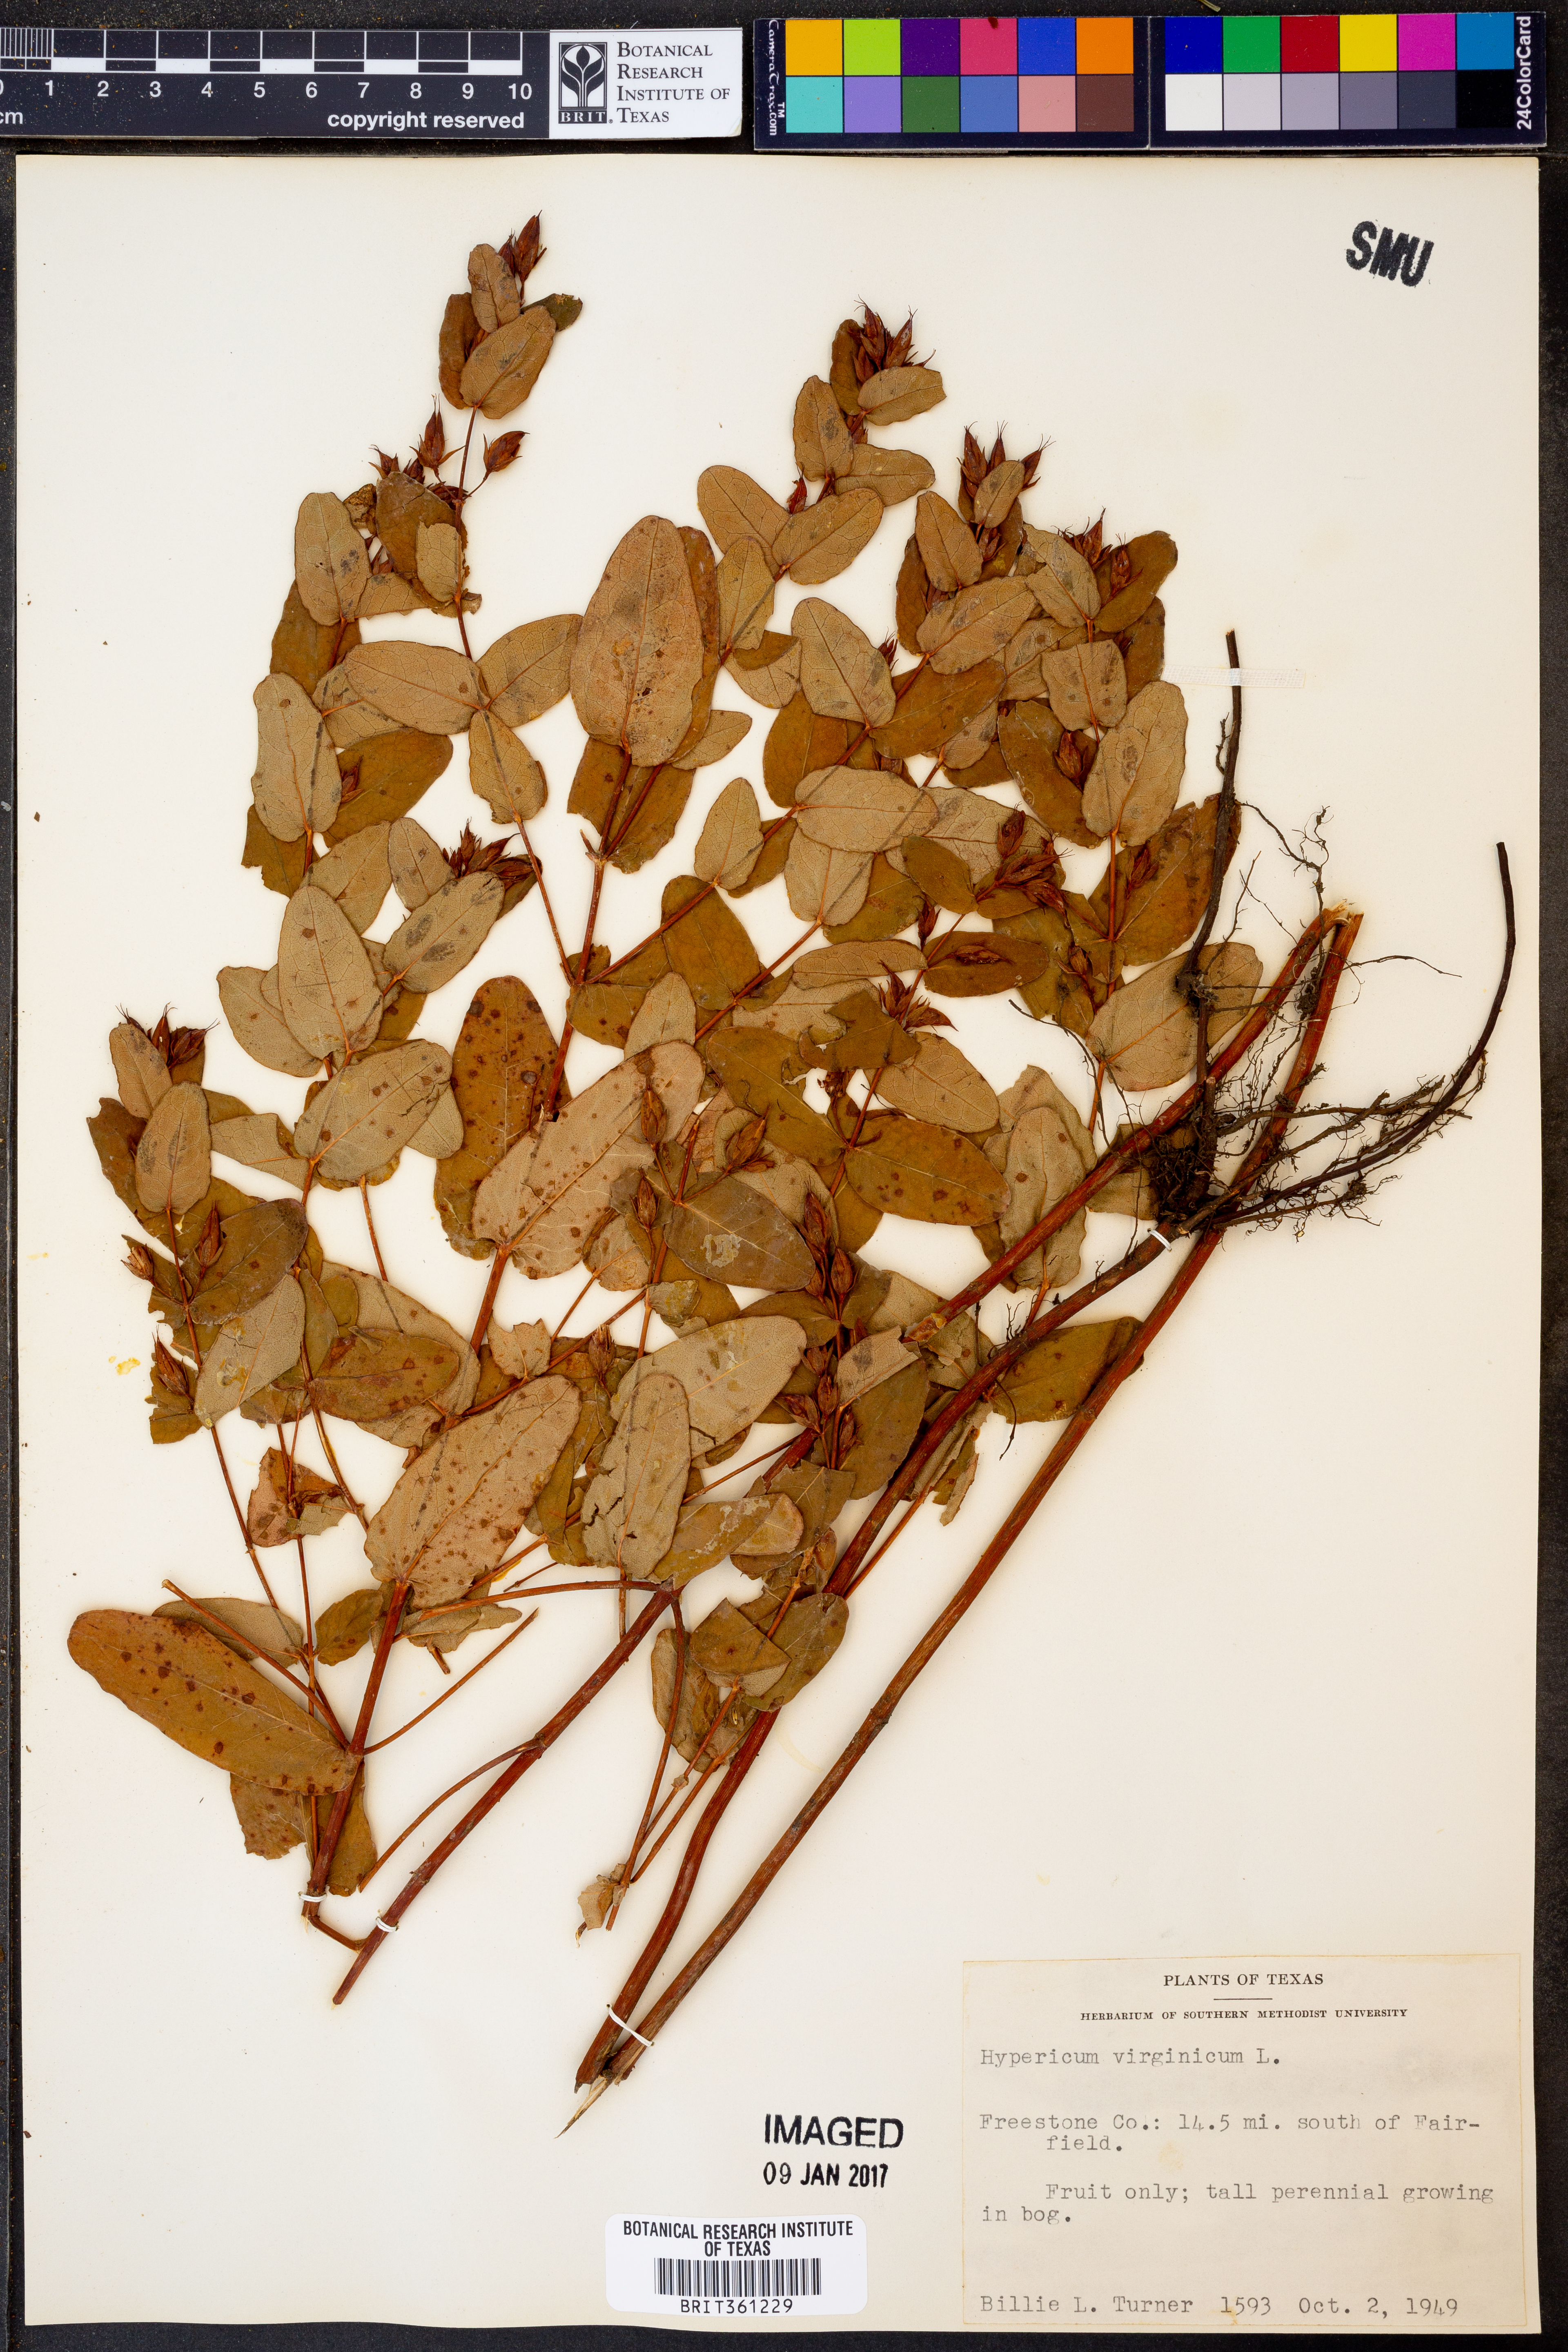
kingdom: Plantae
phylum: Tracheophyta
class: Magnoliopsida
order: Malpighiales
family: Hypericaceae
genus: Triadenum
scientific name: Triadenum virginicum
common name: Marsh st. john's-wort
